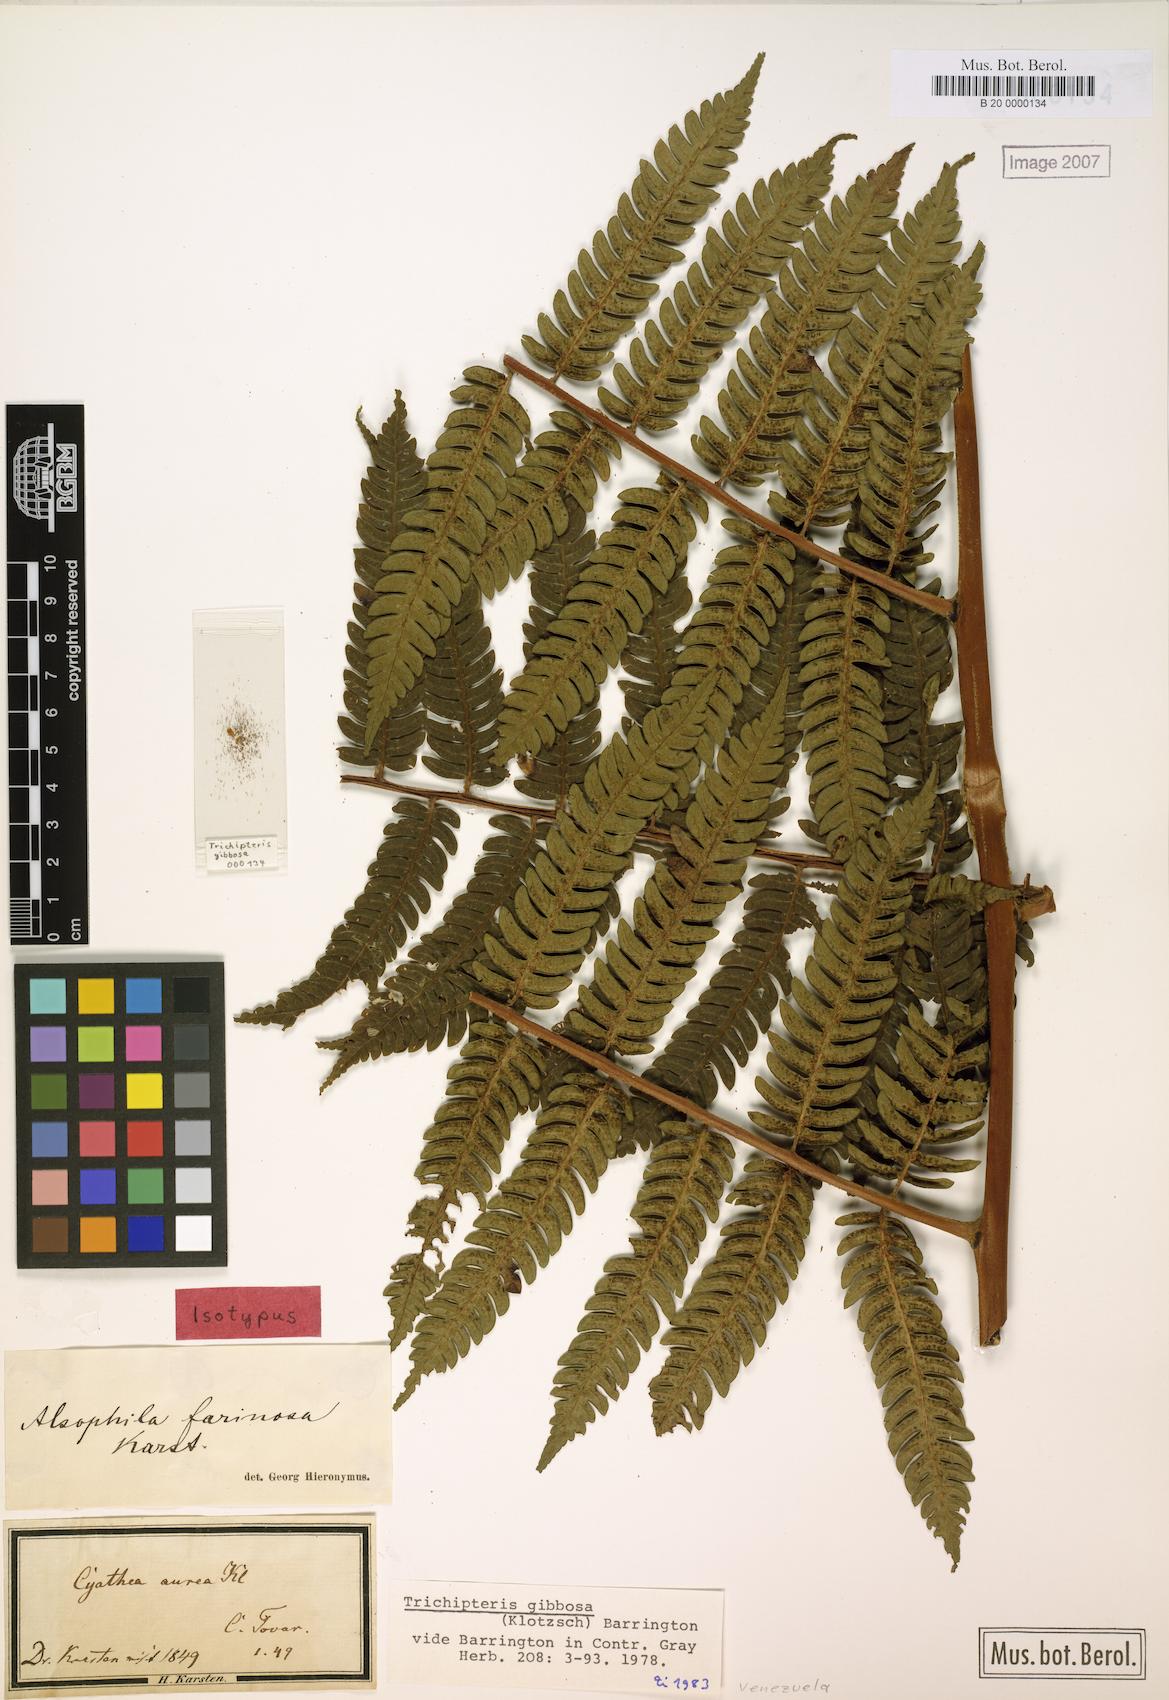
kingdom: Plantae
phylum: Tracheophyta
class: Polypodiopsida
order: Cyatheales
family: Cyatheaceae
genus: Cyathea
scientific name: Cyathea gibbosa
